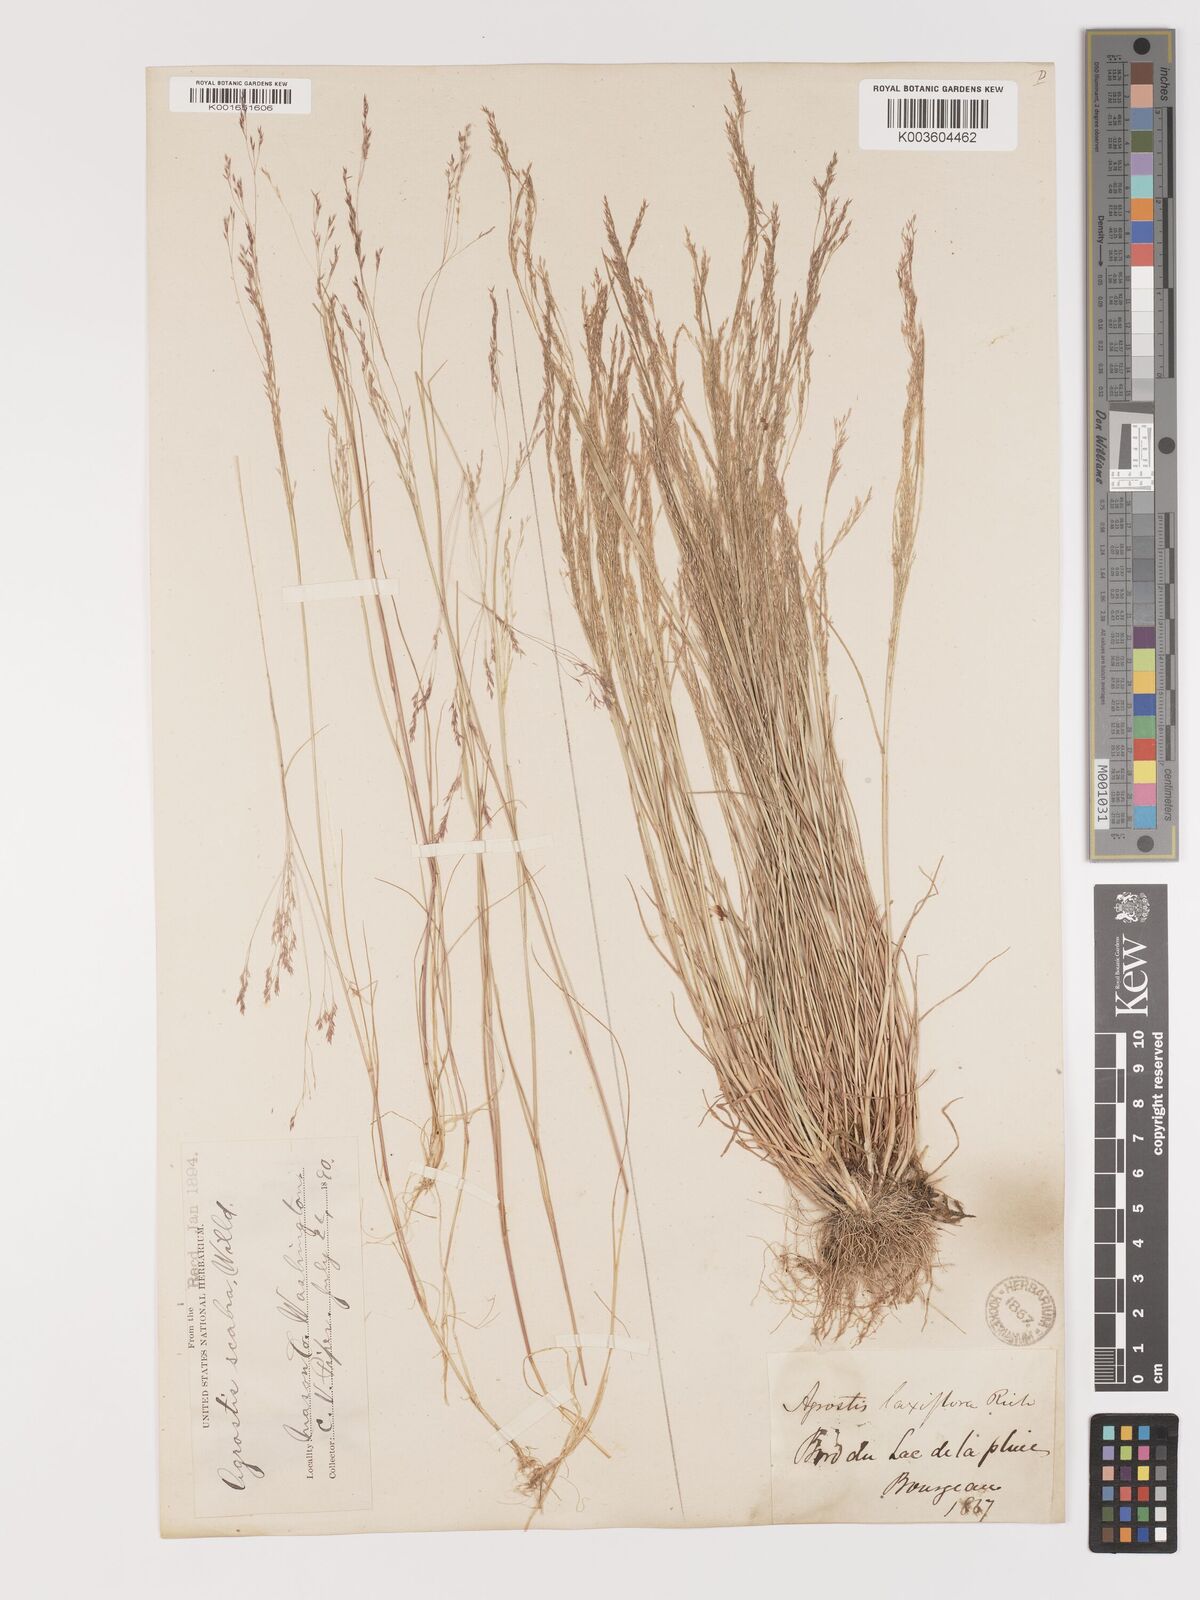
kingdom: Plantae
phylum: Tracheophyta
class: Liliopsida
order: Poales
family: Poaceae
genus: Agrostis
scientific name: Agrostis hyemalis
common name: Small bent
